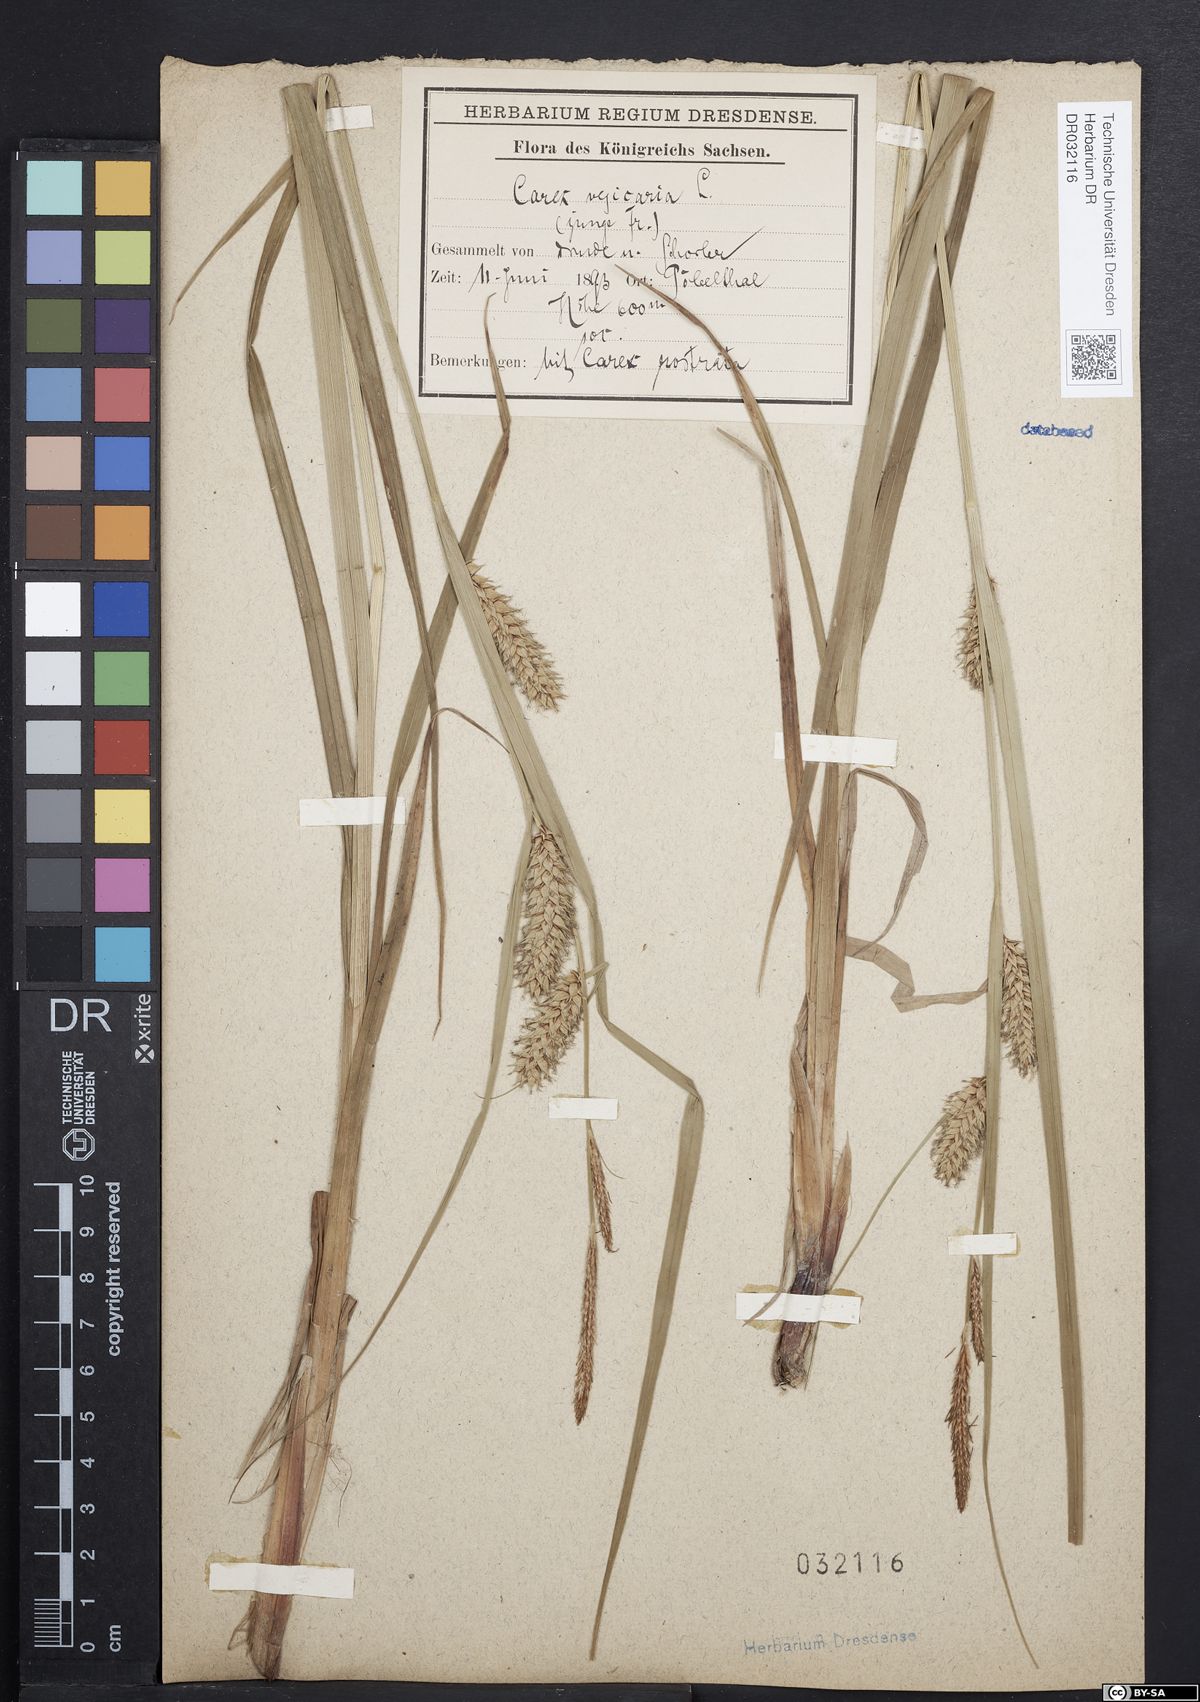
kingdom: Plantae
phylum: Tracheophyta
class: Liliopsida
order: Poales
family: Cyperaceae
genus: Carex
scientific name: Carex vesicaria
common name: Bladder-sedge
